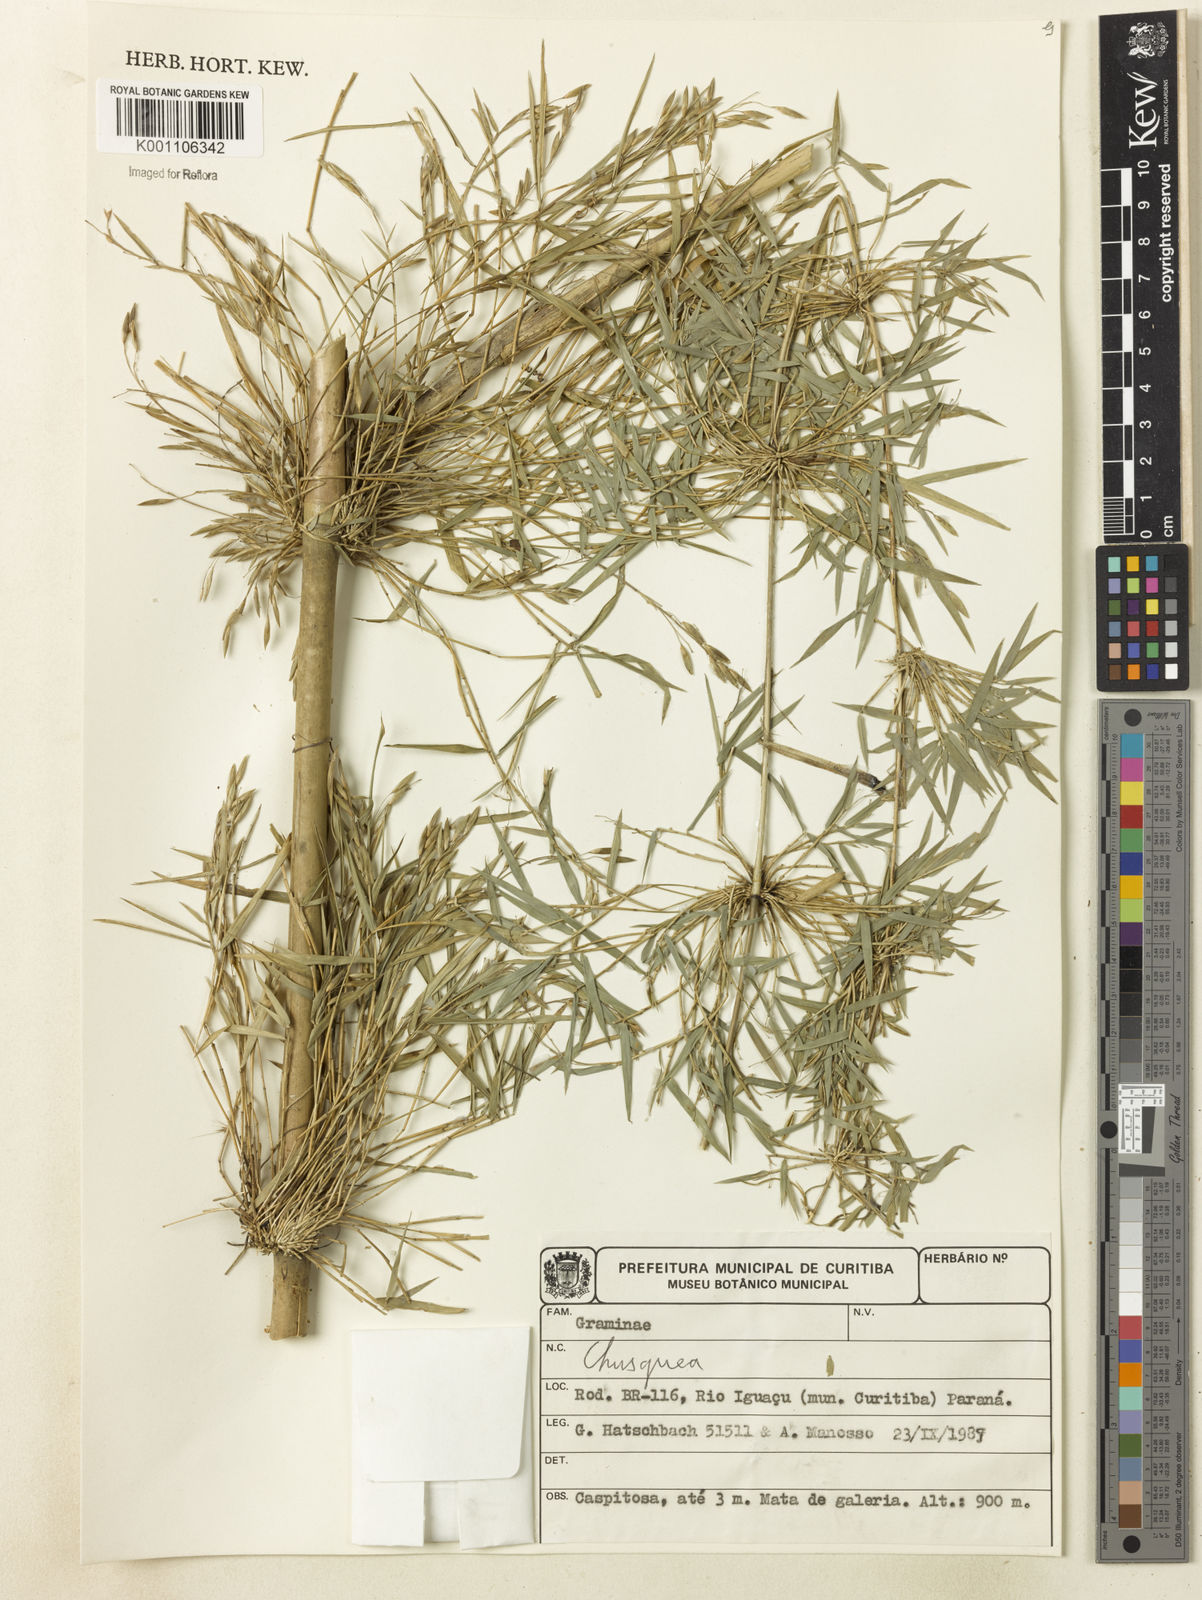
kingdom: Plantae
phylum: Tracheophyta
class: Liliopsida
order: Poales
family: Poaceae
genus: Chusquea
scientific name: Chusquea
